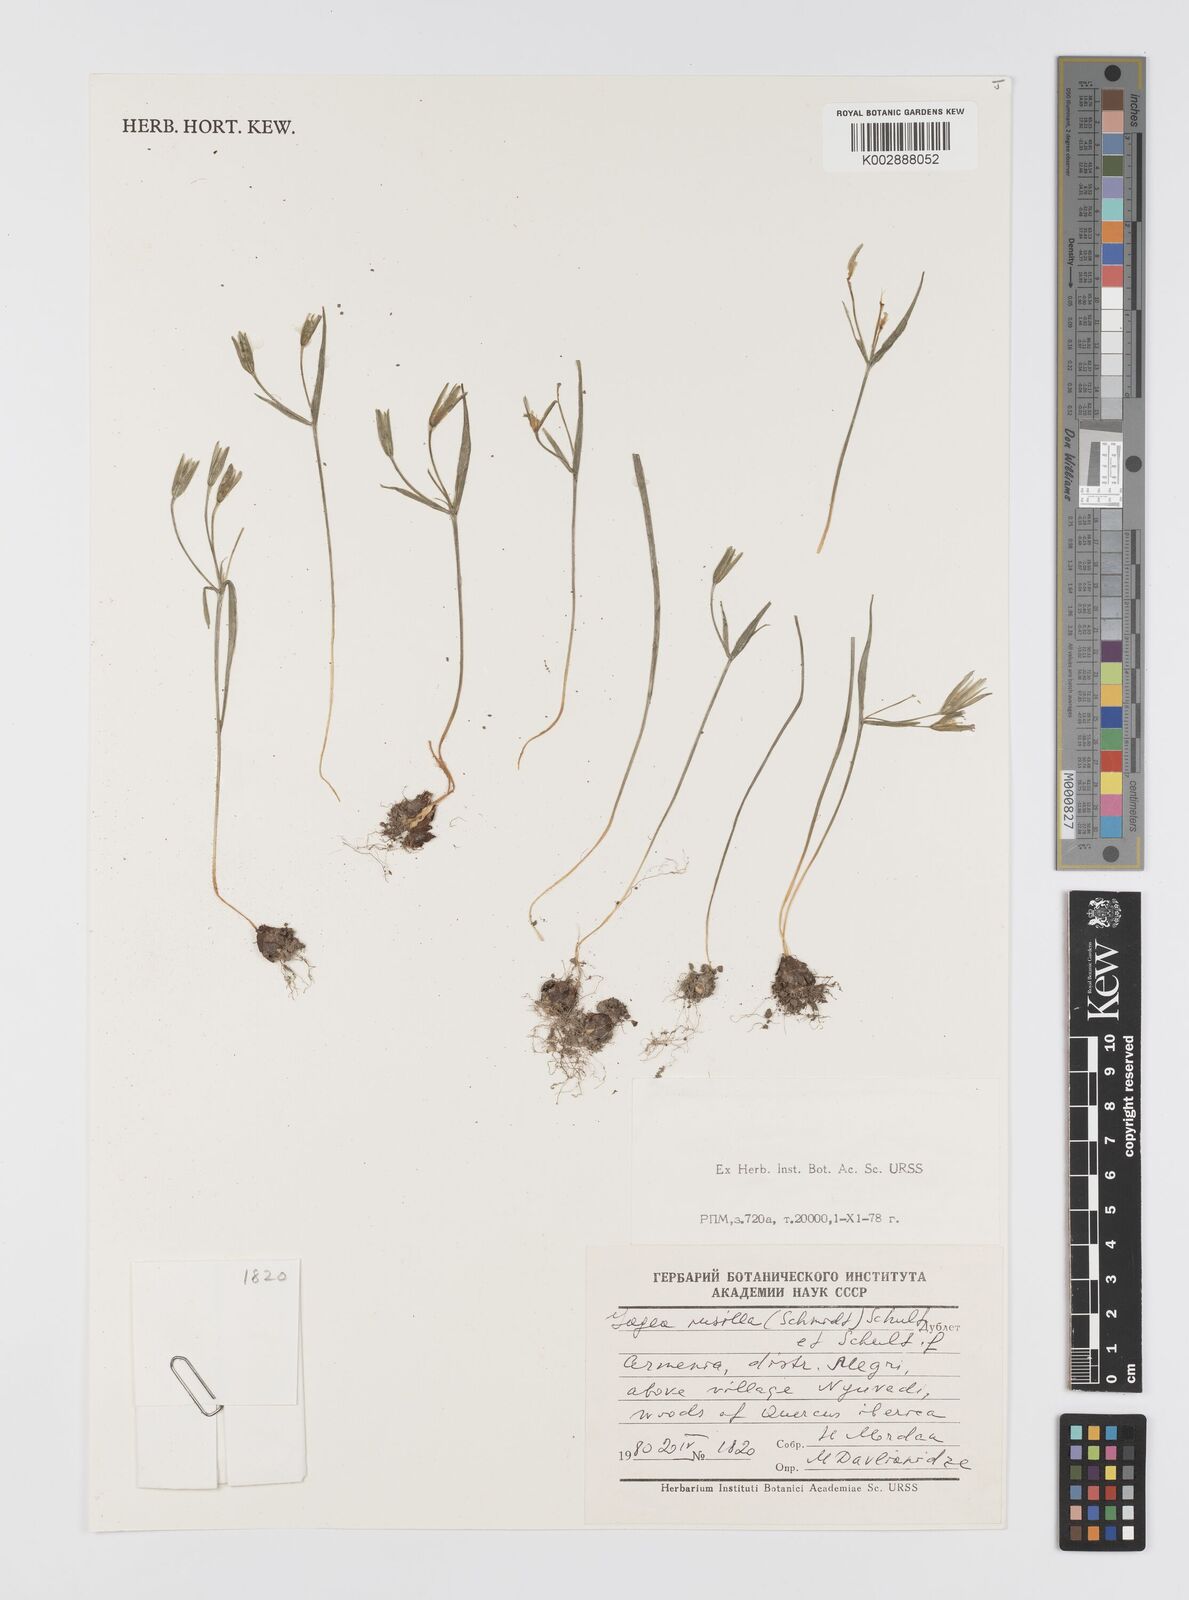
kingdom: Plantae
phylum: Tracheophyta
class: Liliopsida
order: Liliales
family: Liliaceae
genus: Gagea
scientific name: Gagea pusilla
